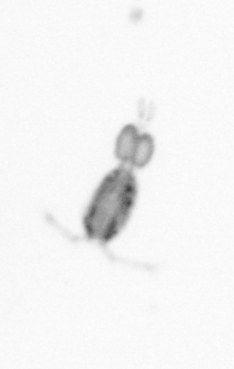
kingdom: Animalia
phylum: Arthropoda
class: Copepoda
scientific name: Copepoda
